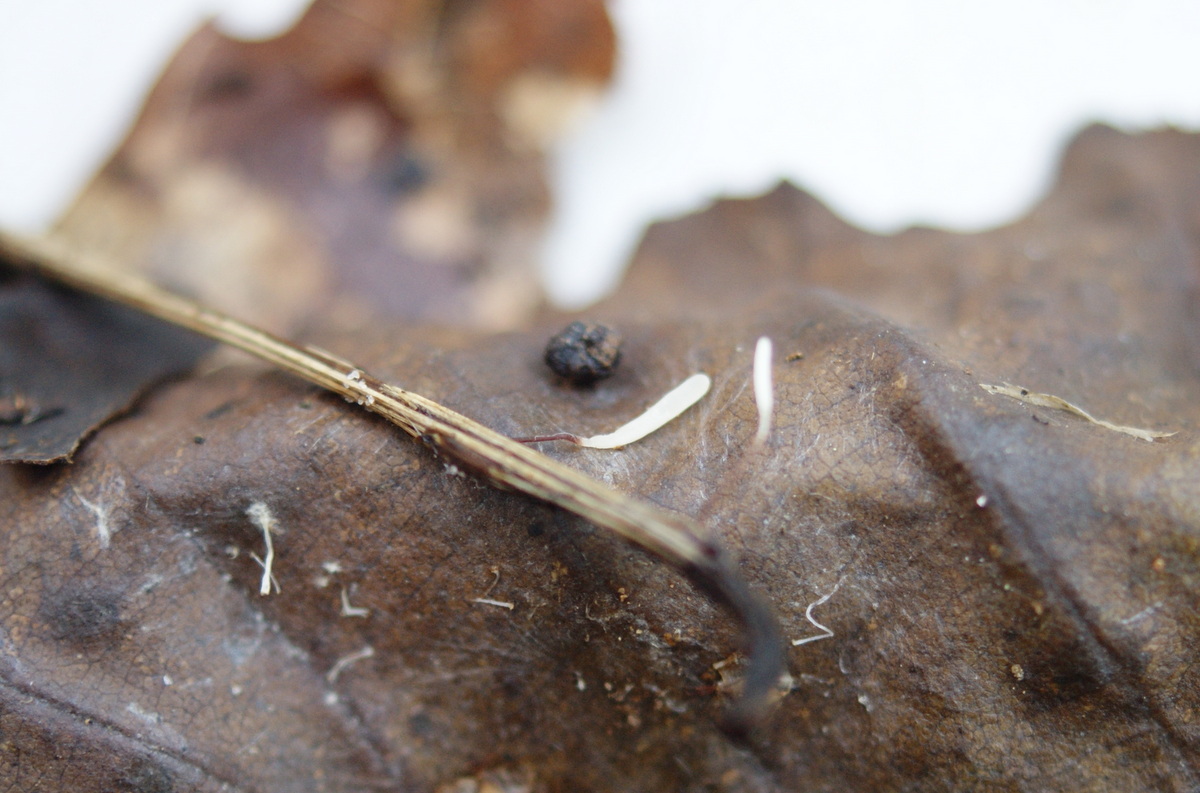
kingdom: Fungi
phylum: Basidiomycota
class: Agaricomycetes
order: Agaricales
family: Typhulaceae
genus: Typhula
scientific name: Typhula erythropus
